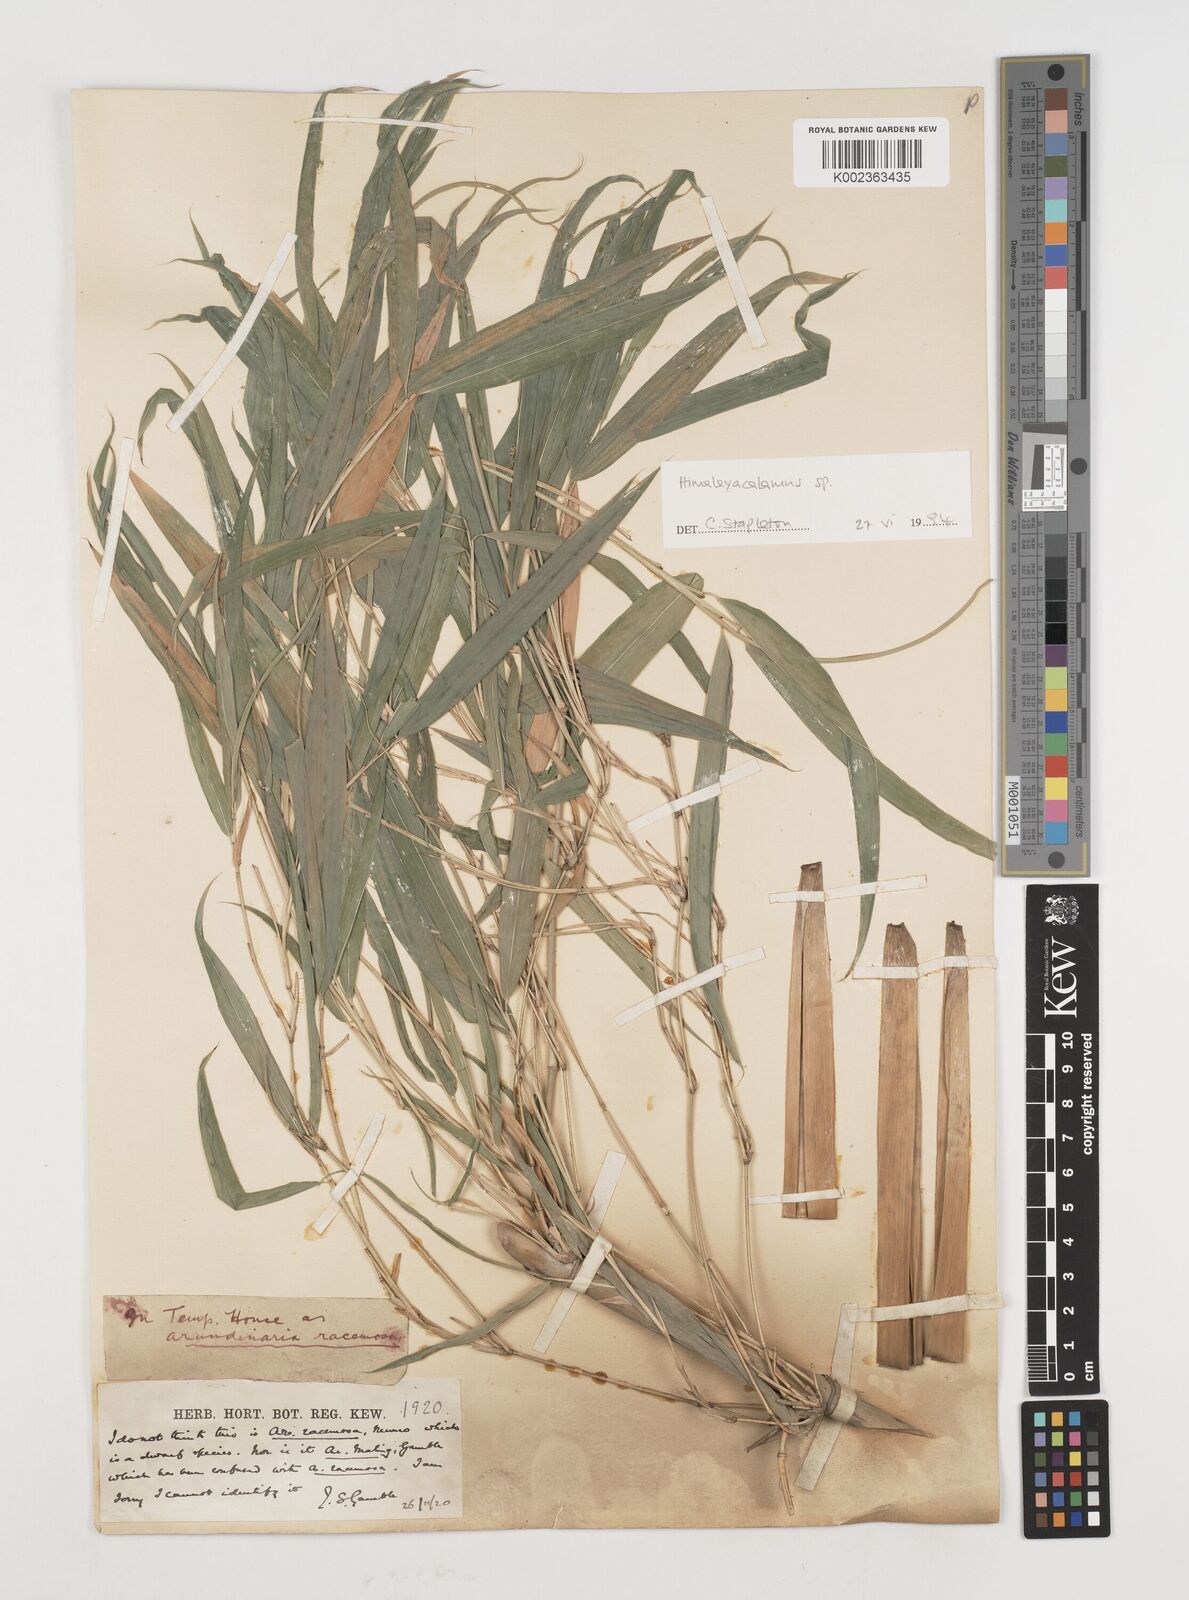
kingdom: Plantae
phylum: Tracheophyta
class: Liliopsida
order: Poales
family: Poaceae
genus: Himalayacalamus
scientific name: Himalayacalamus
